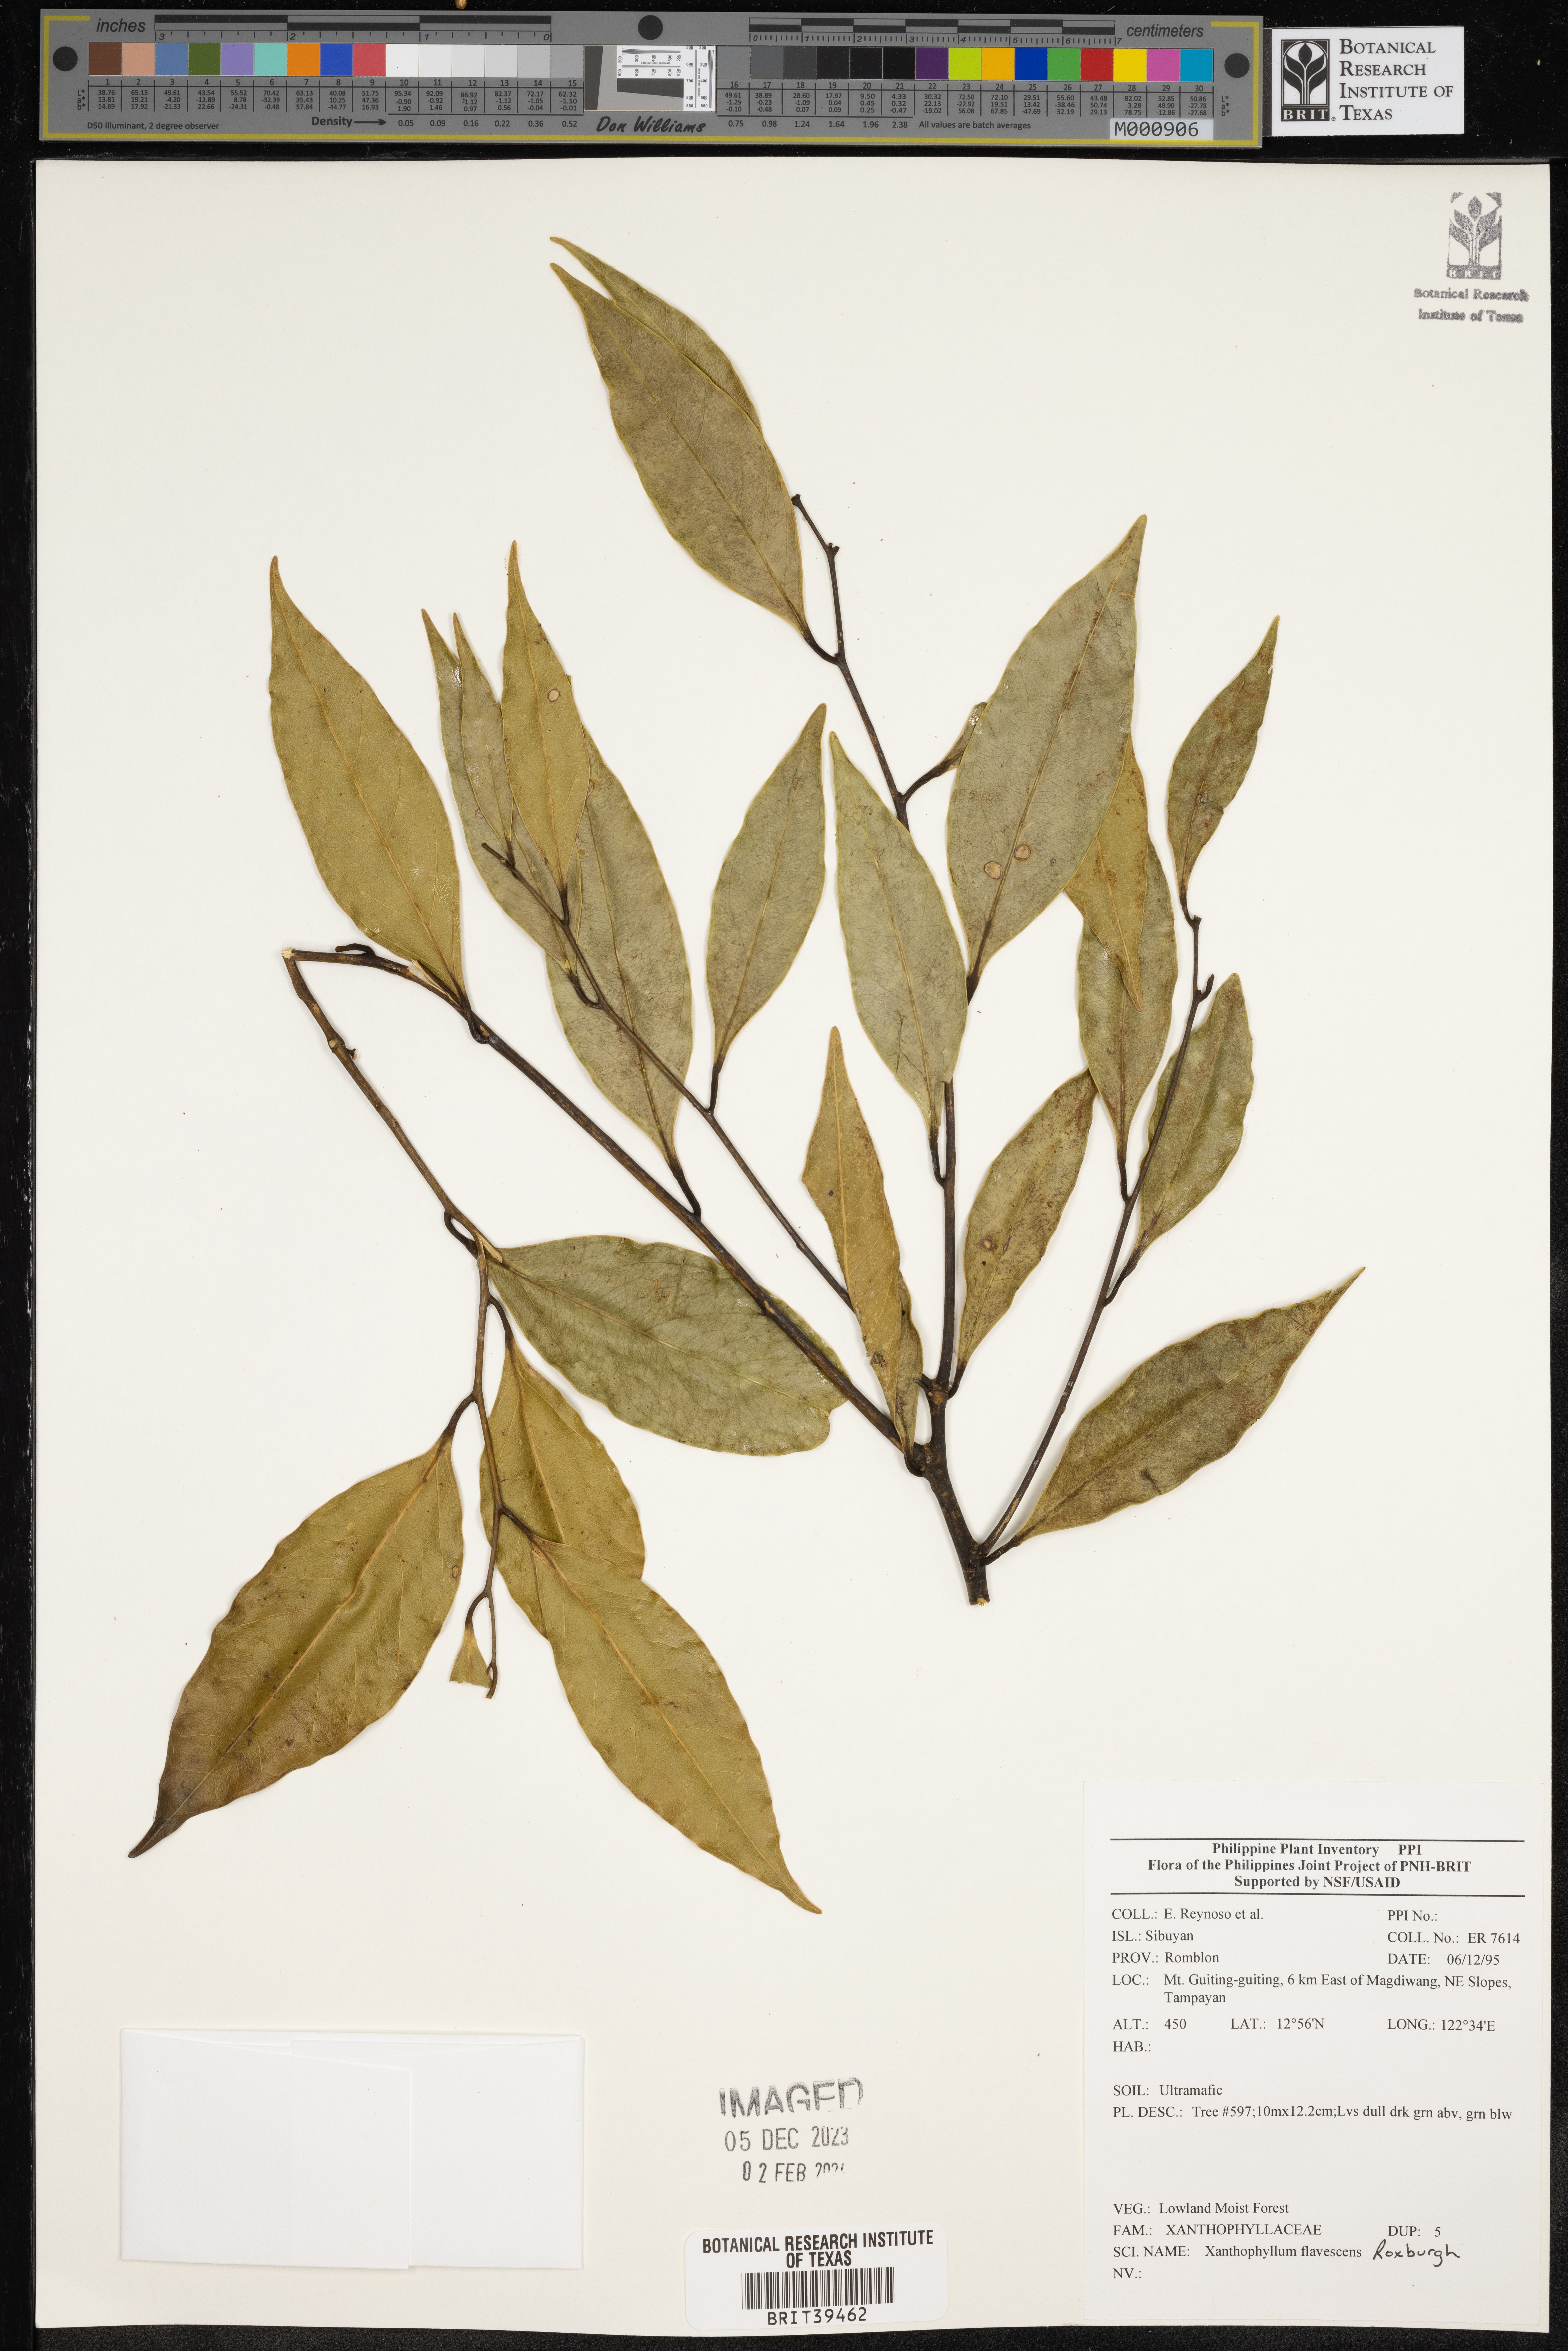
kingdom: Plantae
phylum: Tracheophyta
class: Magnoliopsida
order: Fabales
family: Polygalaceae
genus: Xanthophyllum
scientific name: Xanthophyllum flavescens
